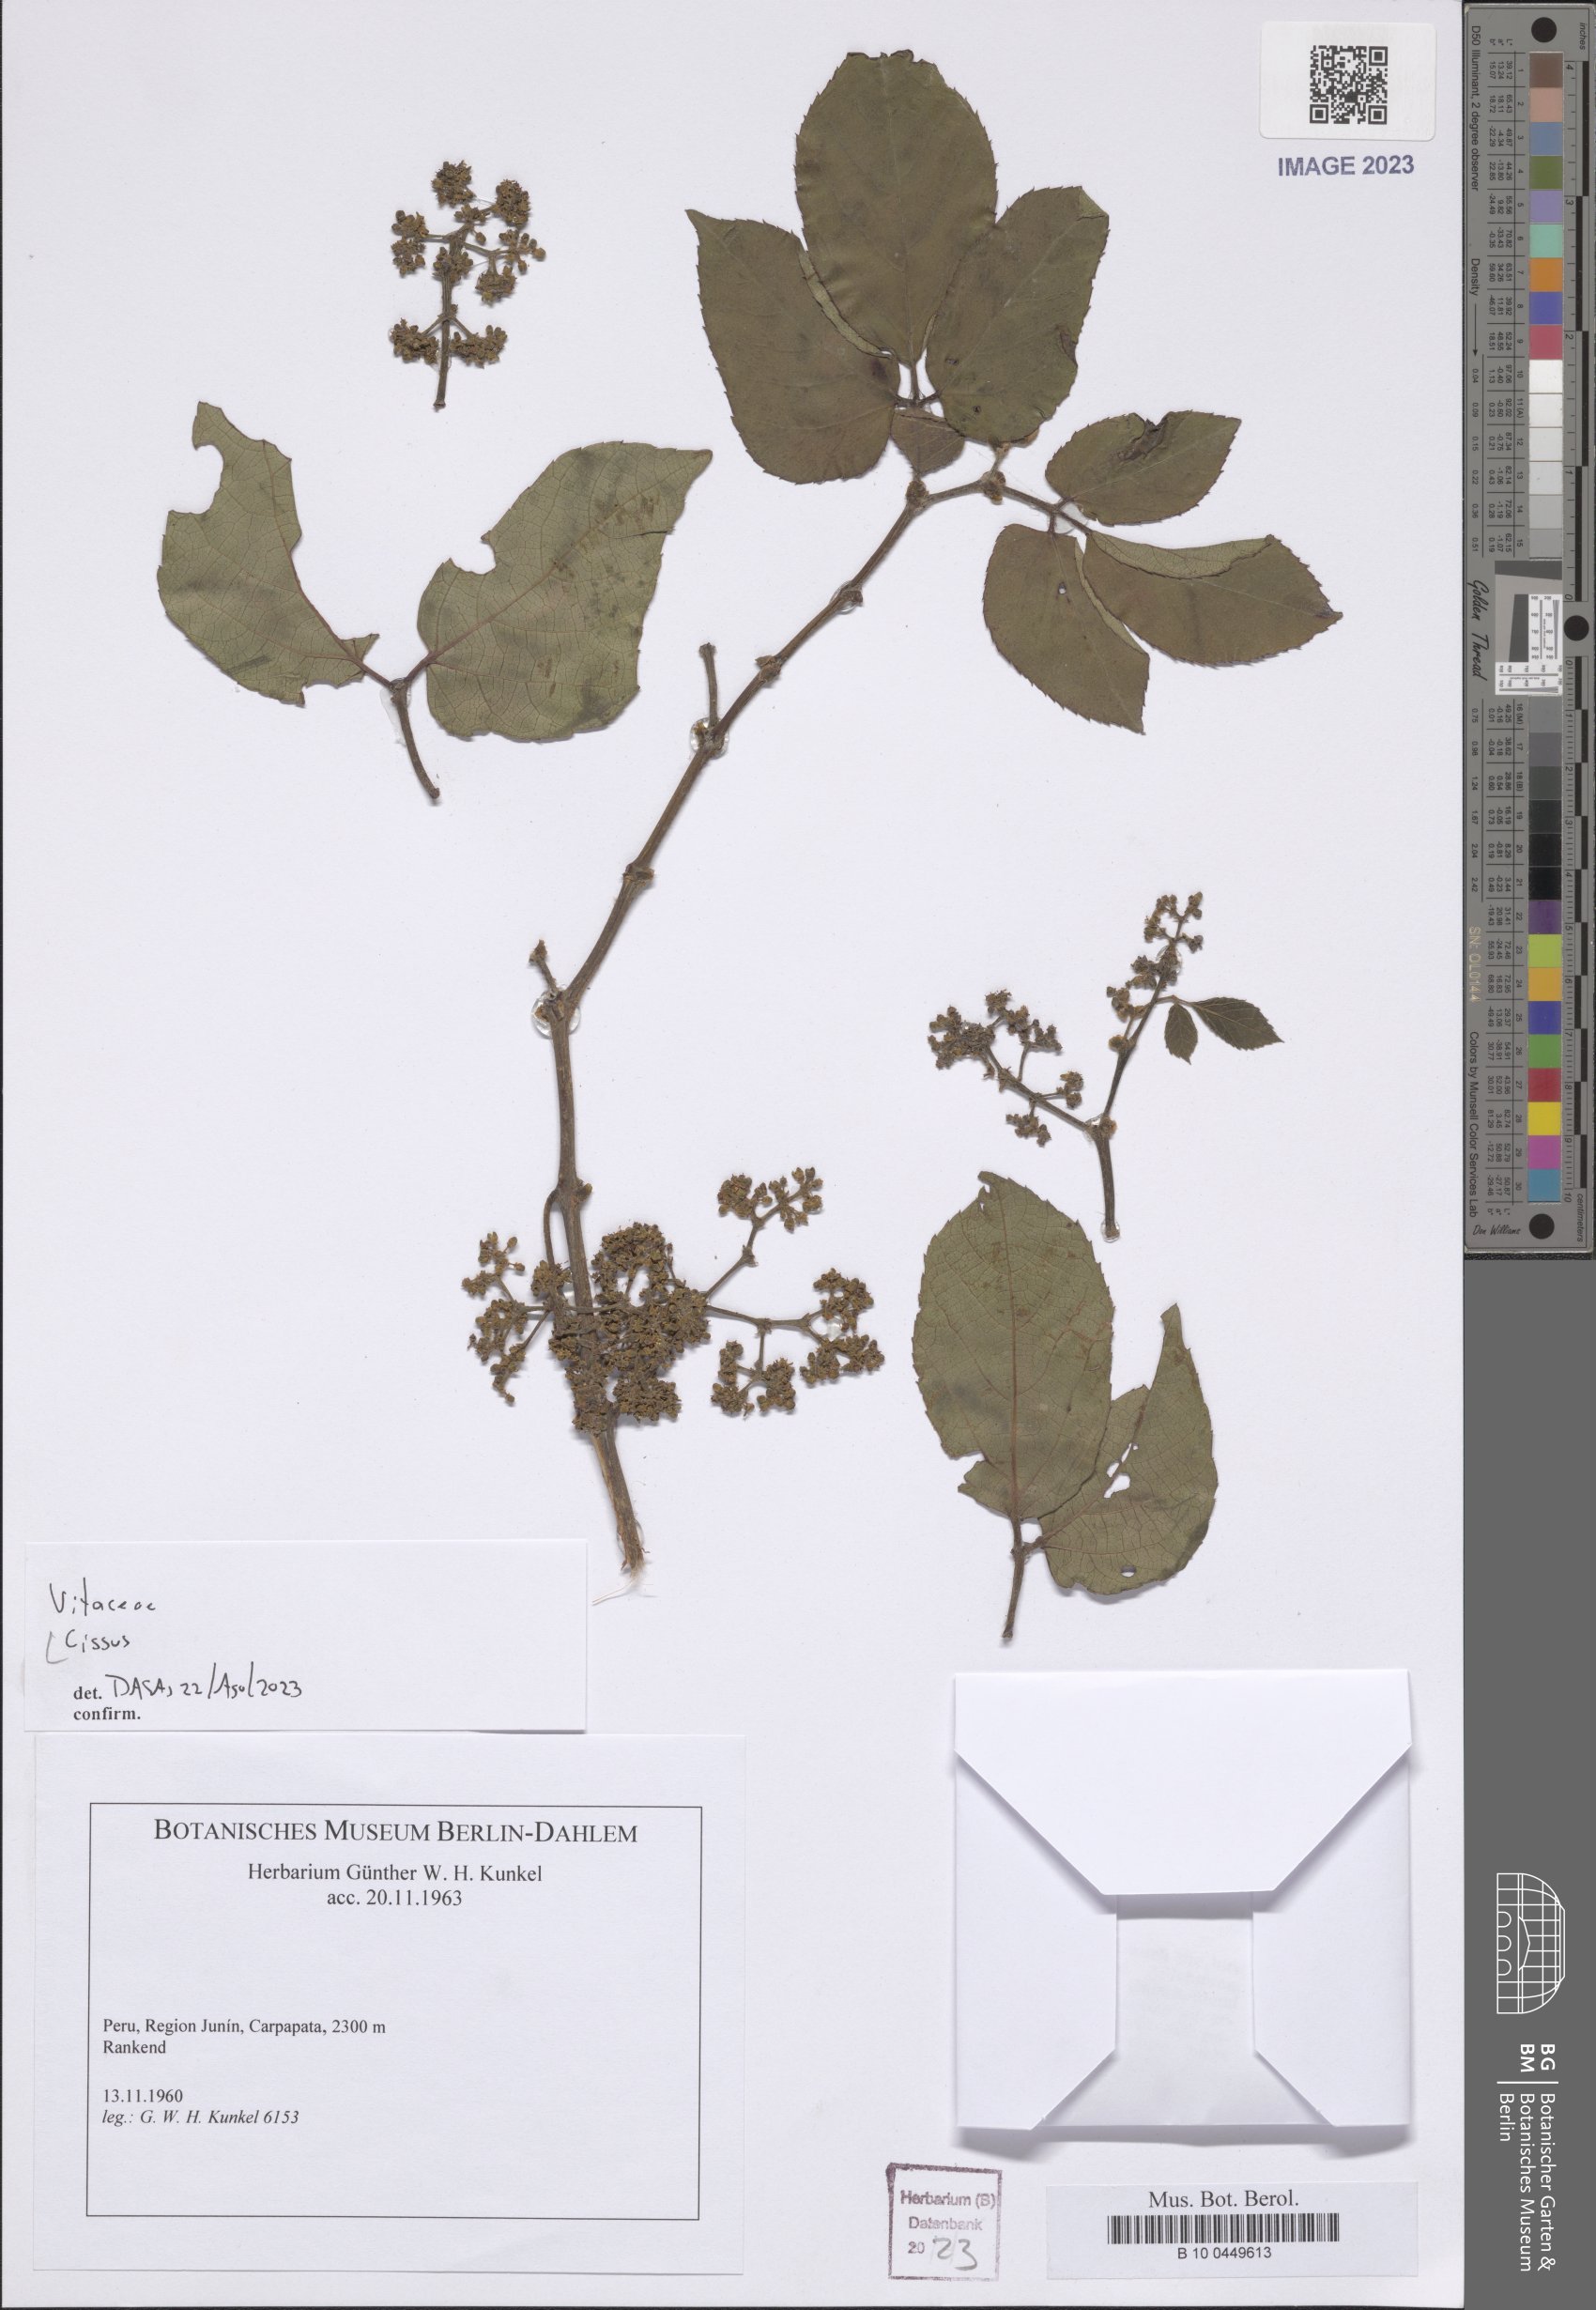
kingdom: Plantae
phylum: Tracheophyta
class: Magnoliopsida
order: Vitales
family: Vitaceae
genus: Cissus
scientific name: Cissus
